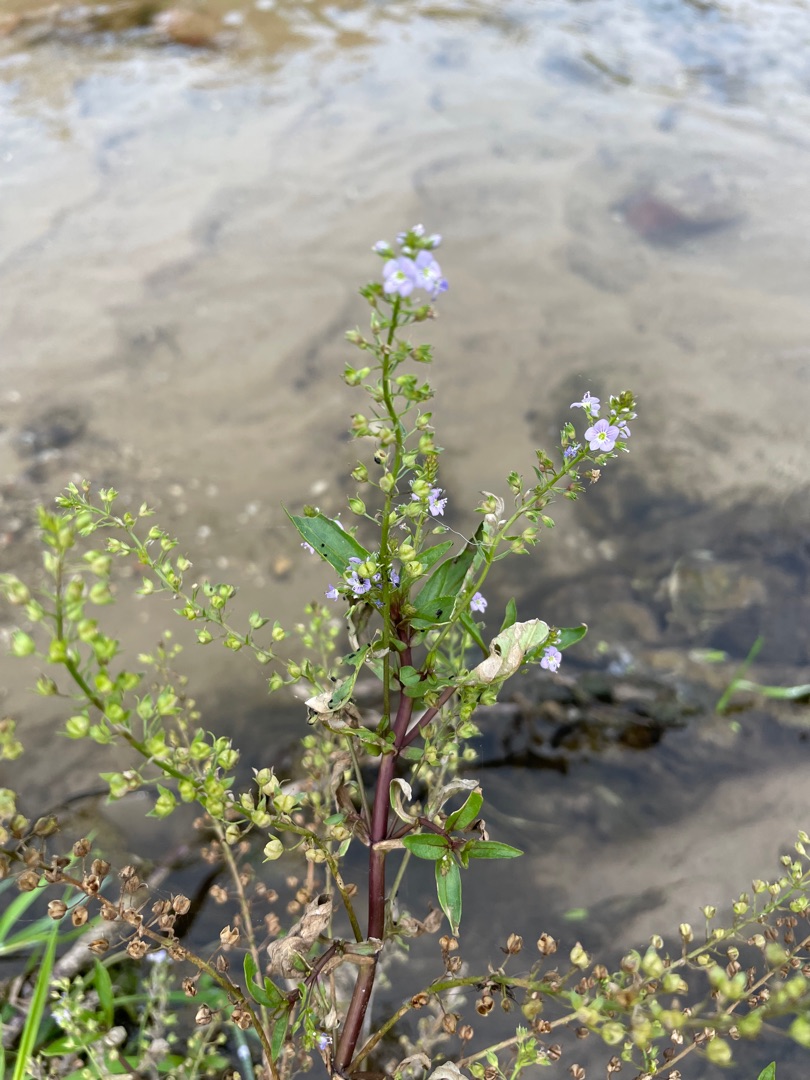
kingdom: Plantae
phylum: Tracheophyta
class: Magnoliopsida
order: Lamiales
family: Plantaginaceae
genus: Veronica
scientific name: Veronica anagallis-aquatica
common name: Lancetbladet ærenpris
